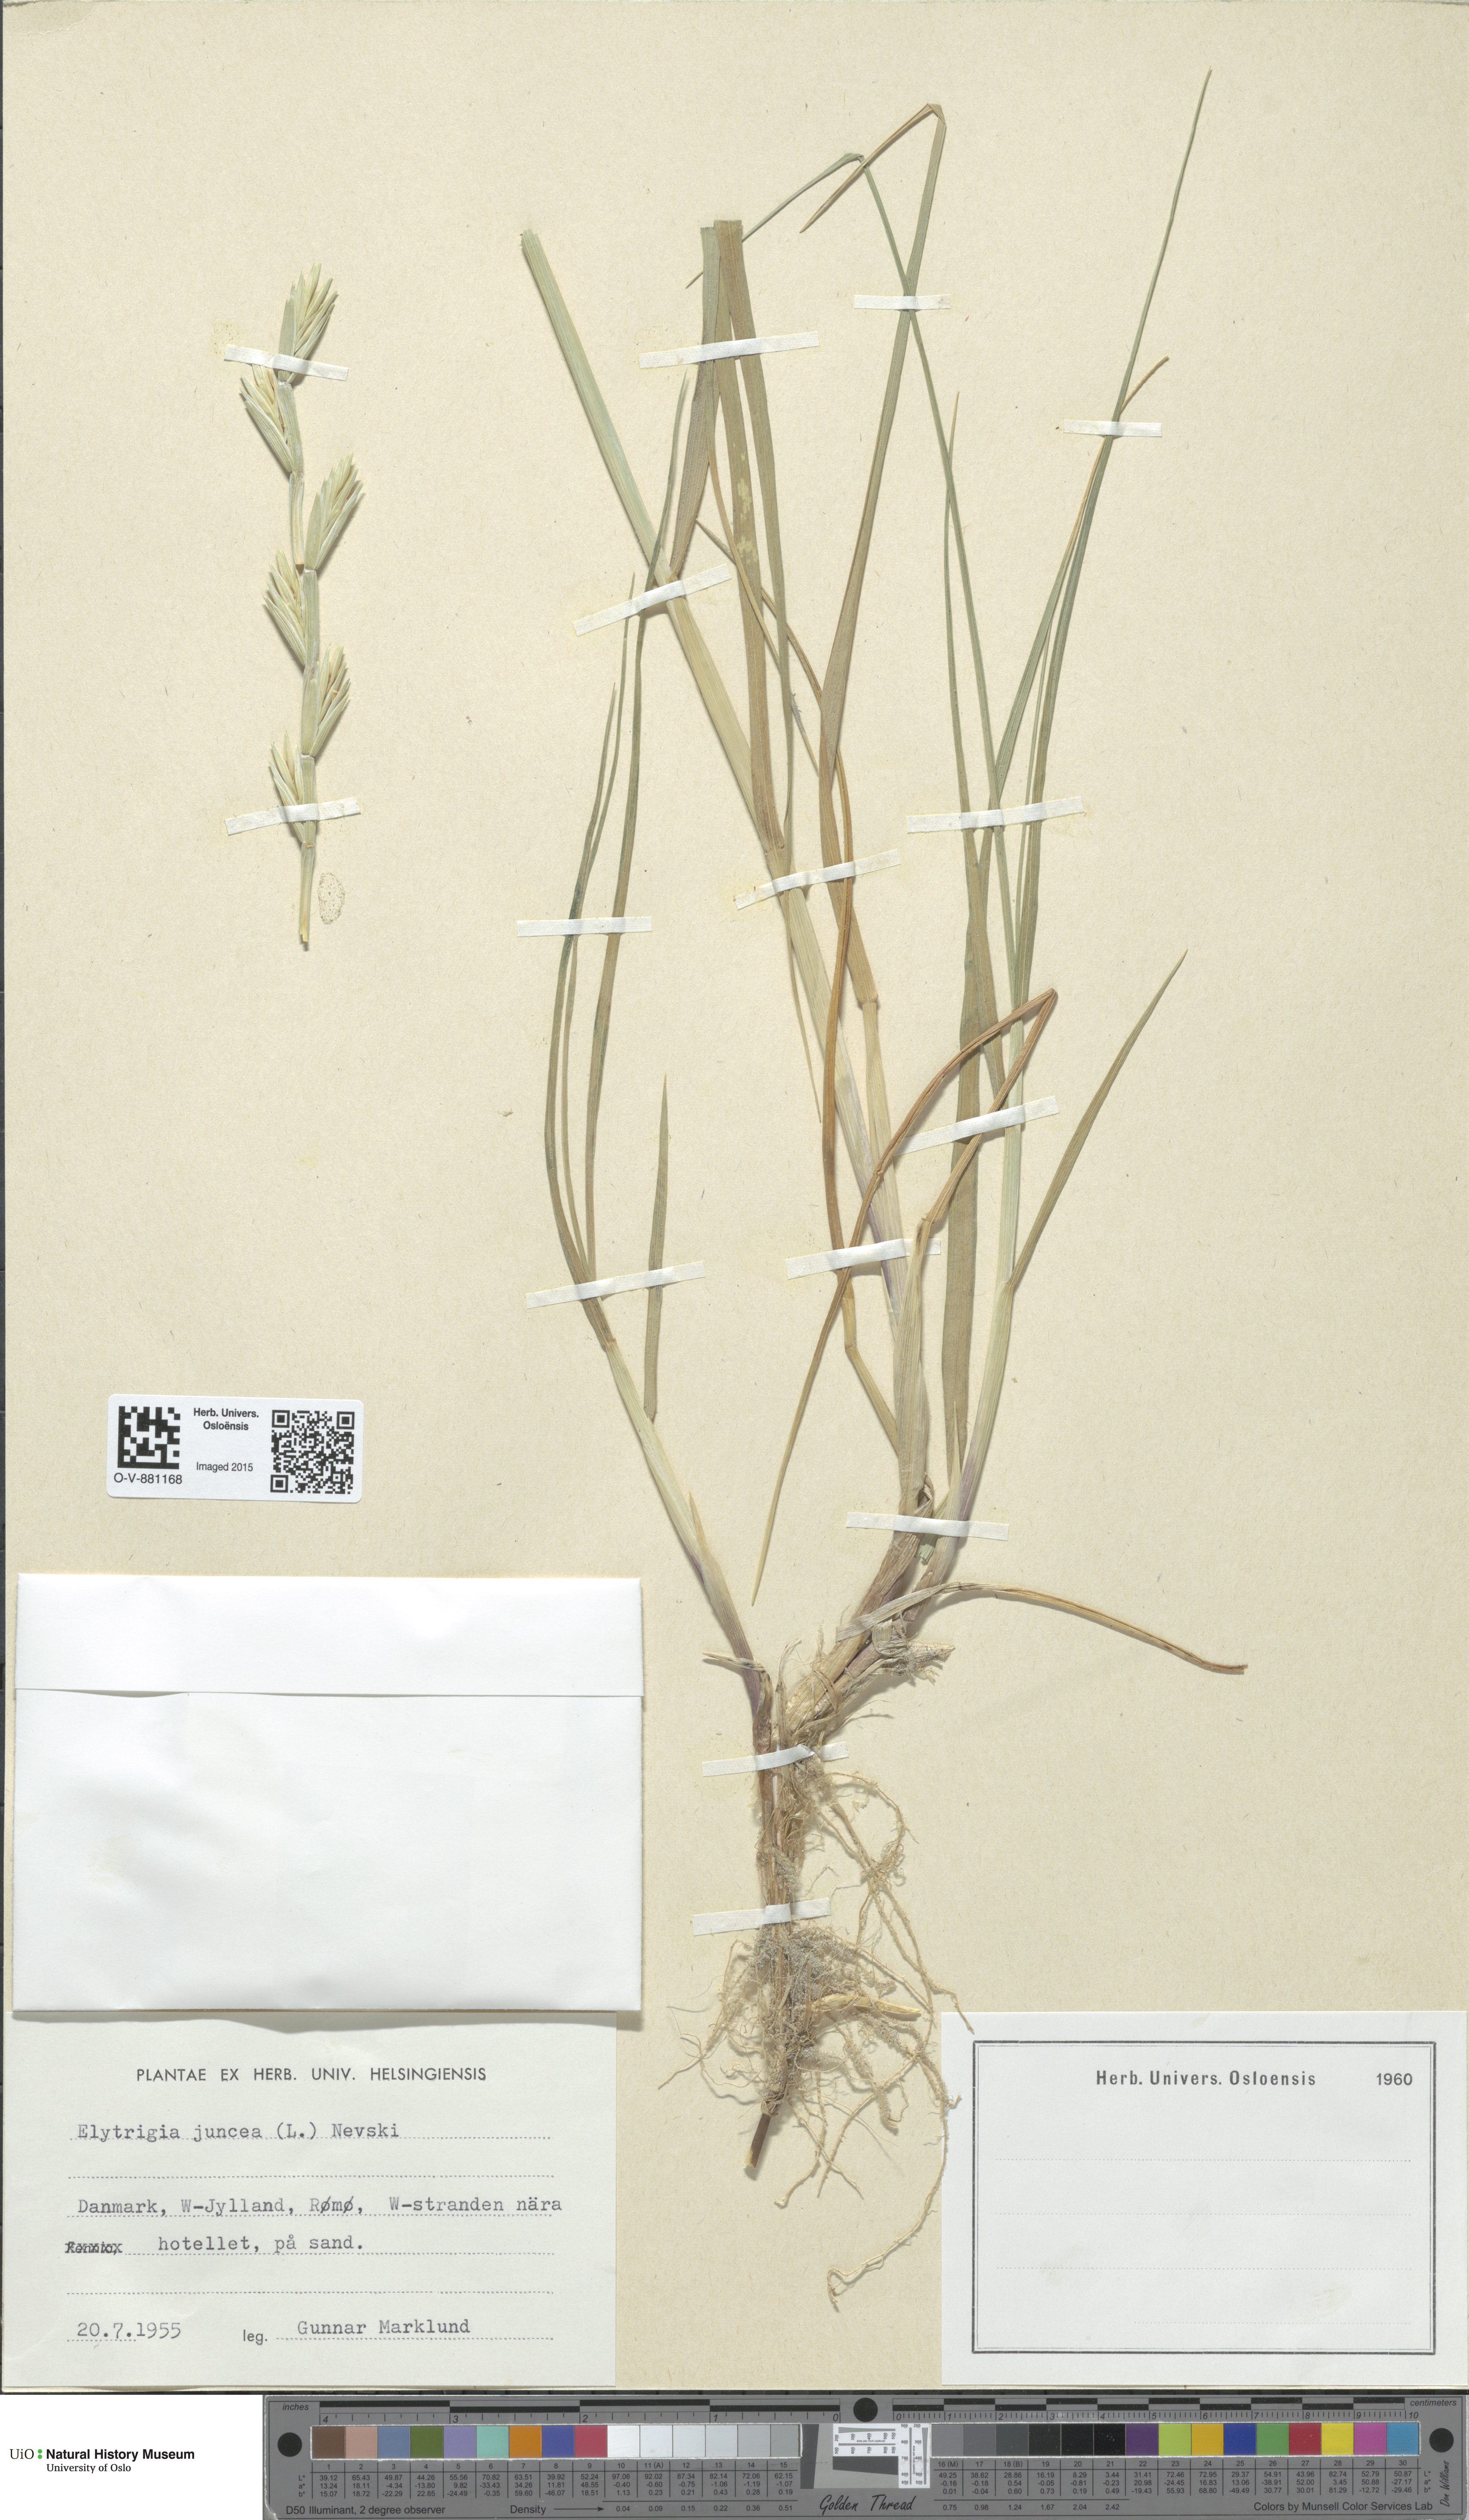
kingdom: Plantae
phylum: Tracheophyta
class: Liliopsida
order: Poales
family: Poaceae
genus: Thinopyrum
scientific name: Thinopyrum junceum
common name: Russian wheatgrass
